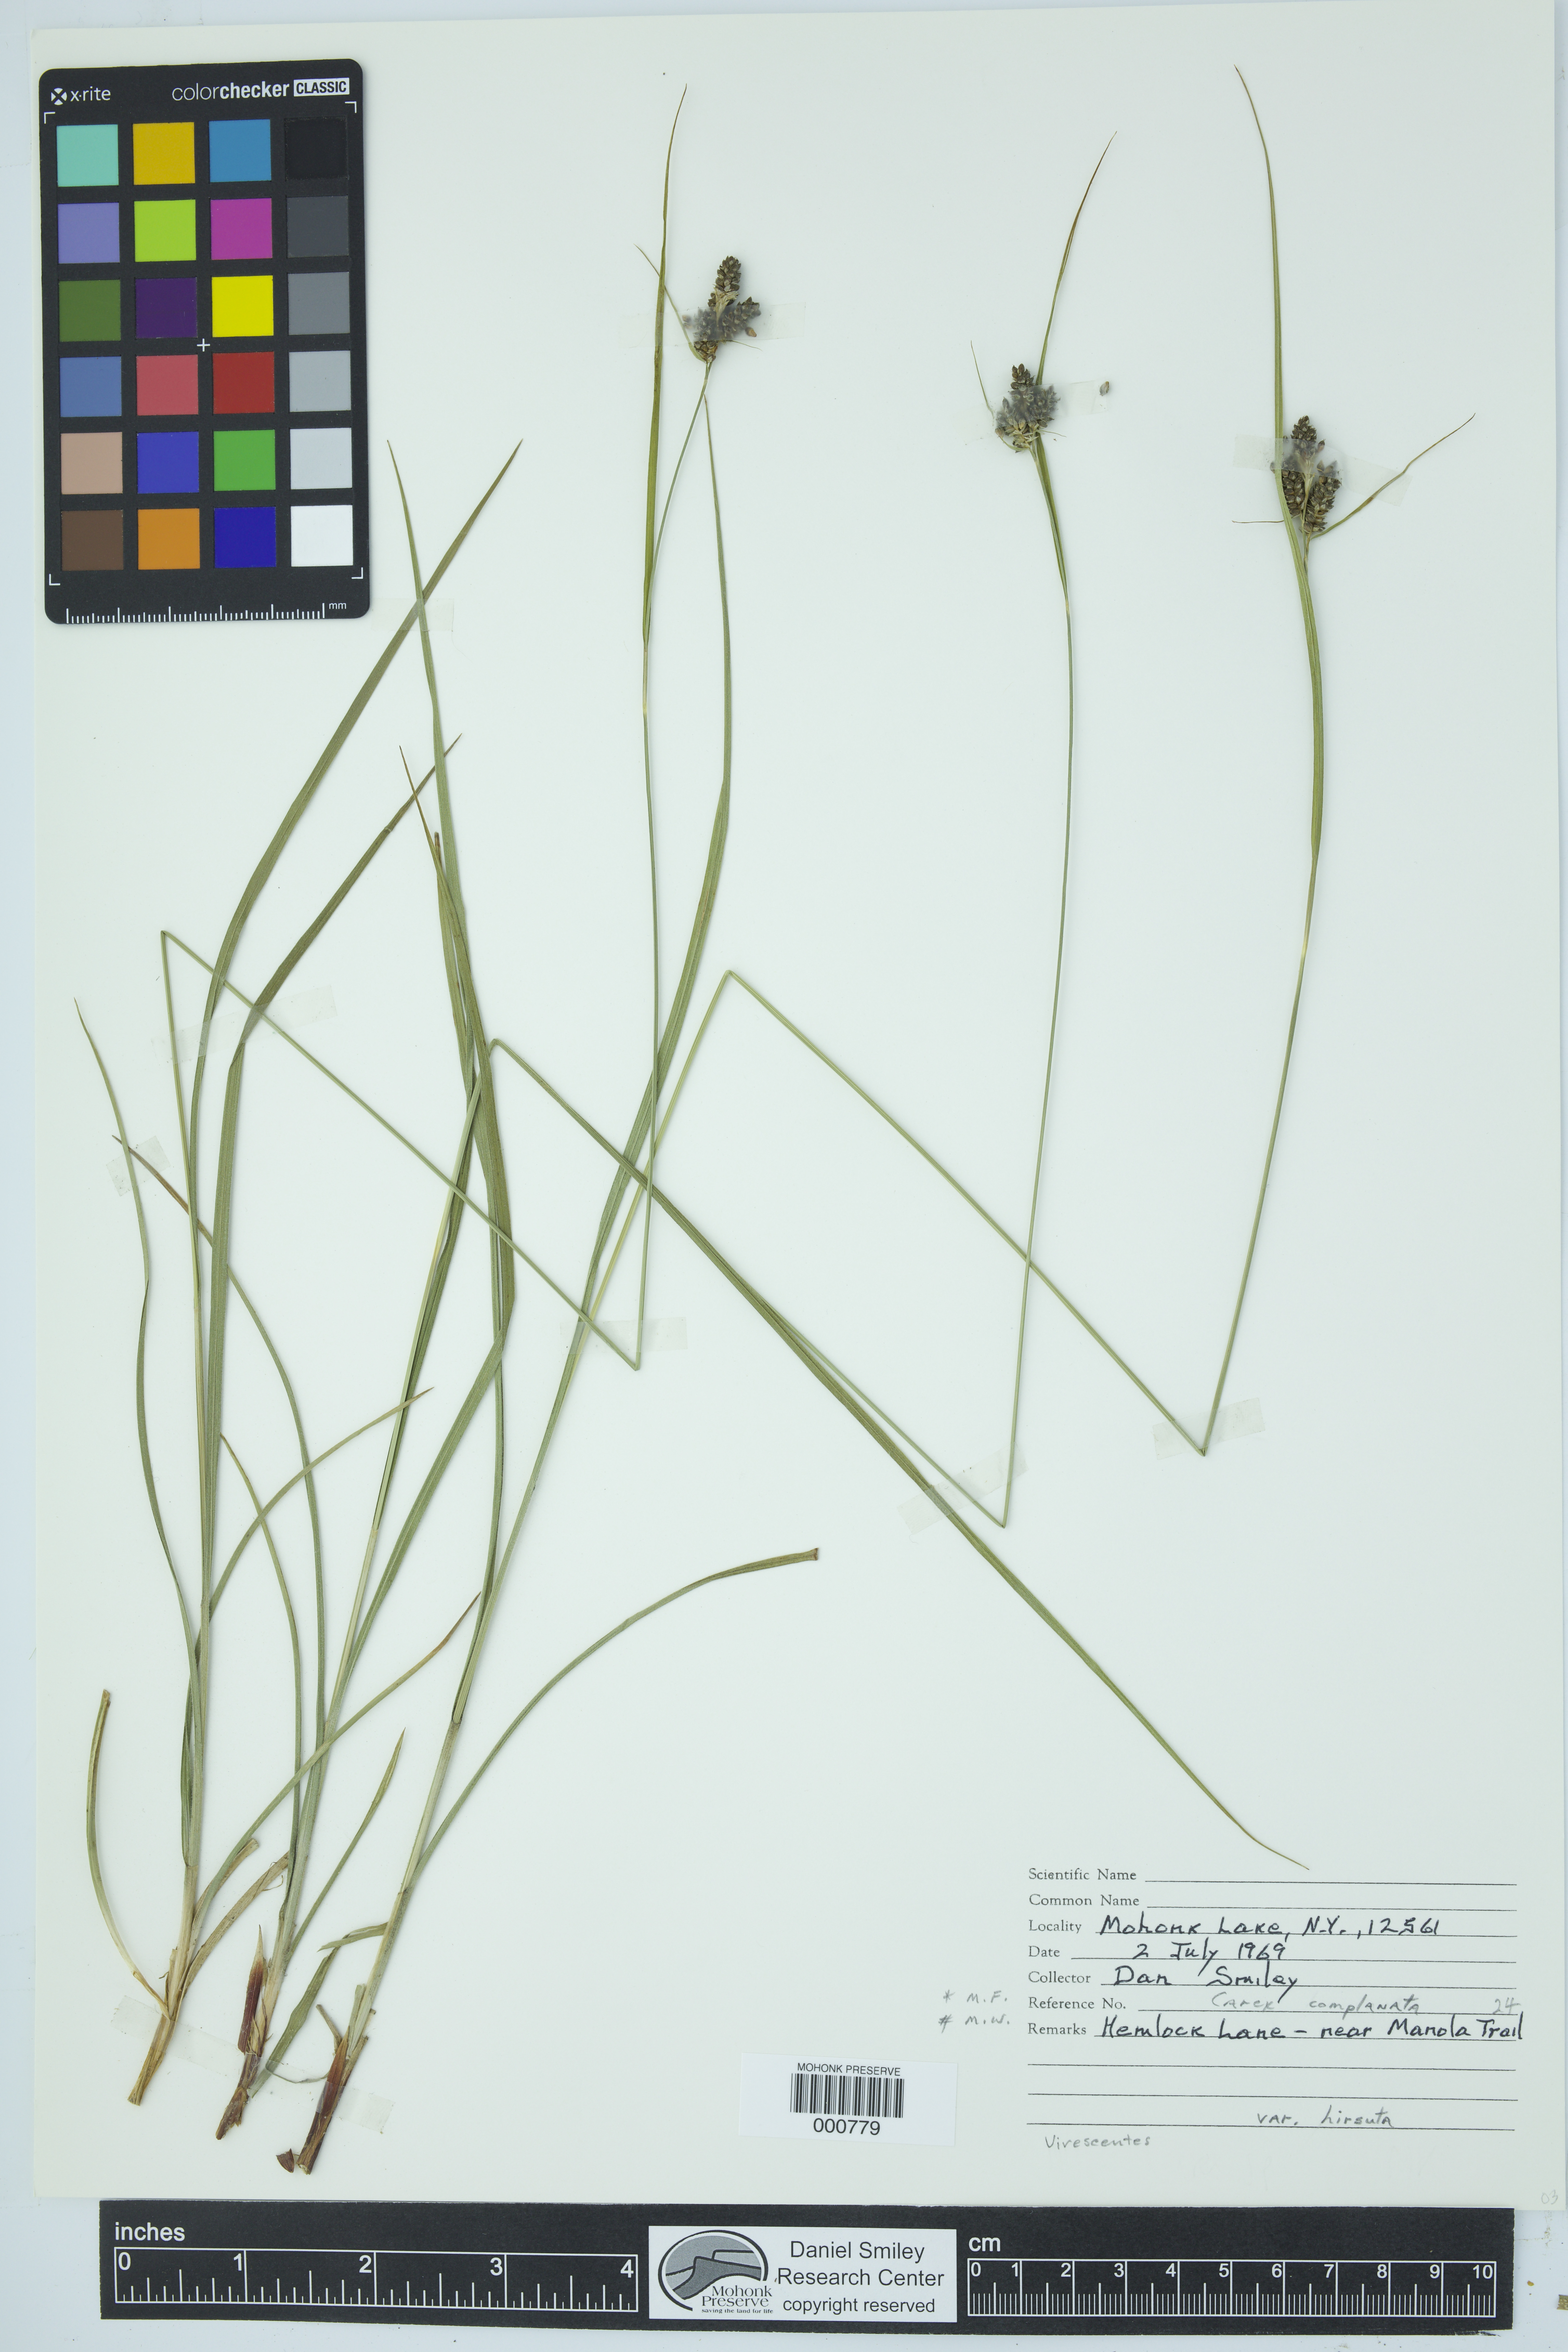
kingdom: Plantae
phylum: Tracheophyta
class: Liliopsida
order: Poales
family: Cyperaceae
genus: Carex
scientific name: Carex complanata
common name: Hirsute sedge
